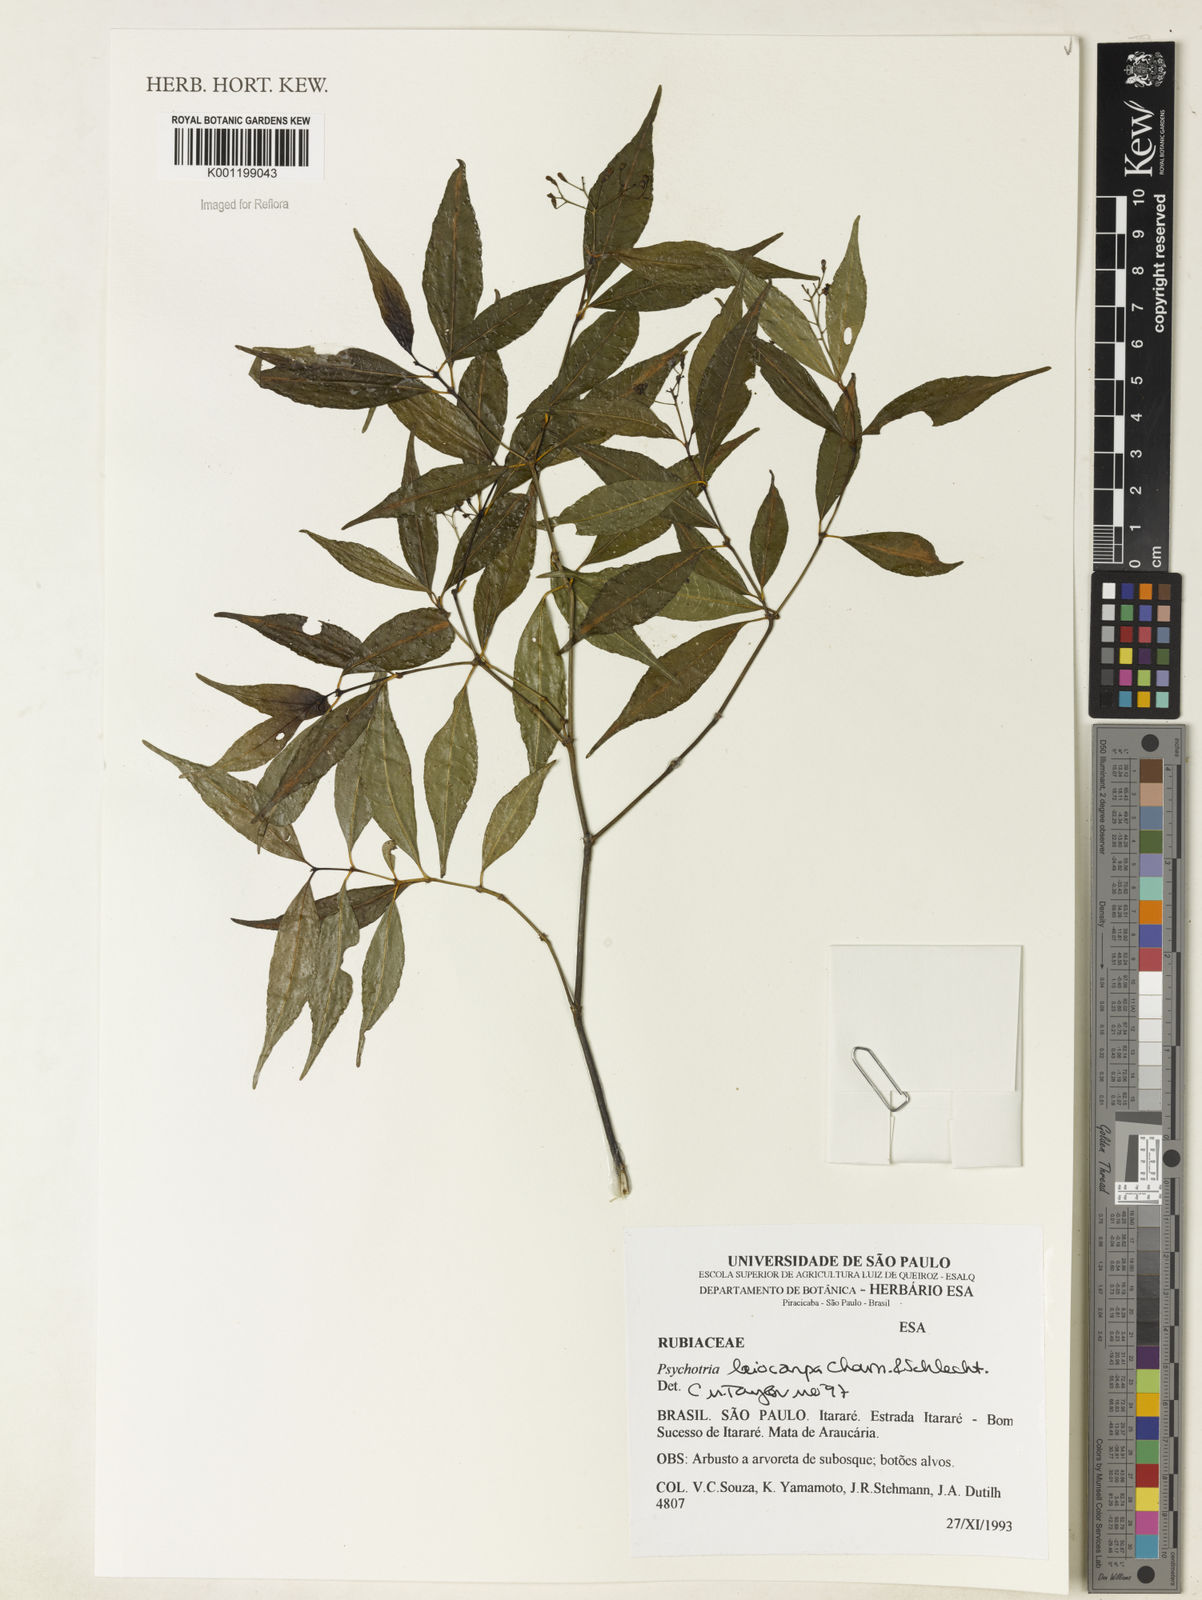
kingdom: Plantae
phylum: Tracheophyta
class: Magnoliopsida
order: Gentianales
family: Rubiaceae
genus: Psychotria
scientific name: Psychotria leiocarpa
